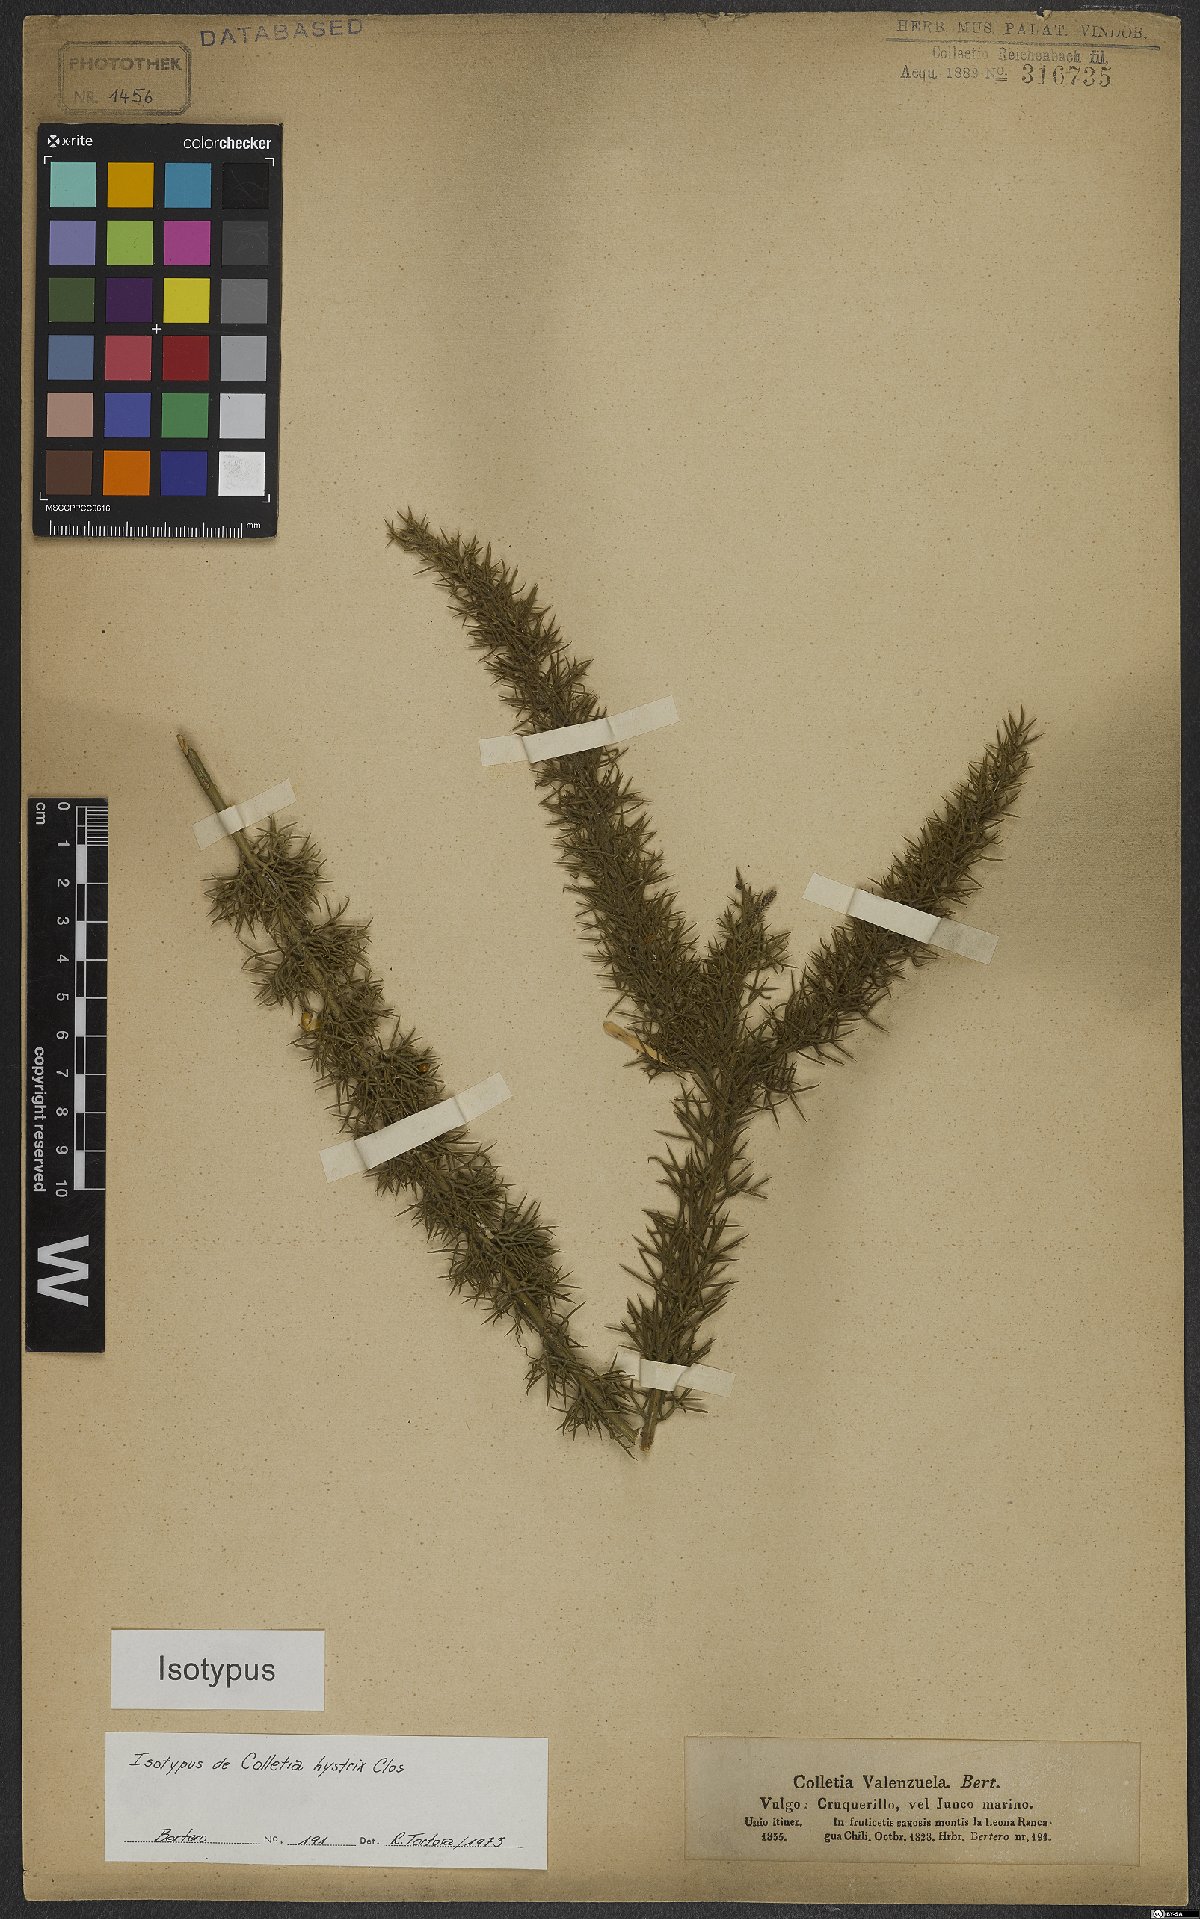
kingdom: Plantae
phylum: Tracheophyta
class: Magnoliopsida
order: Rosales
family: Rhamnaceae
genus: Colletia
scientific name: Colletia hystrix
